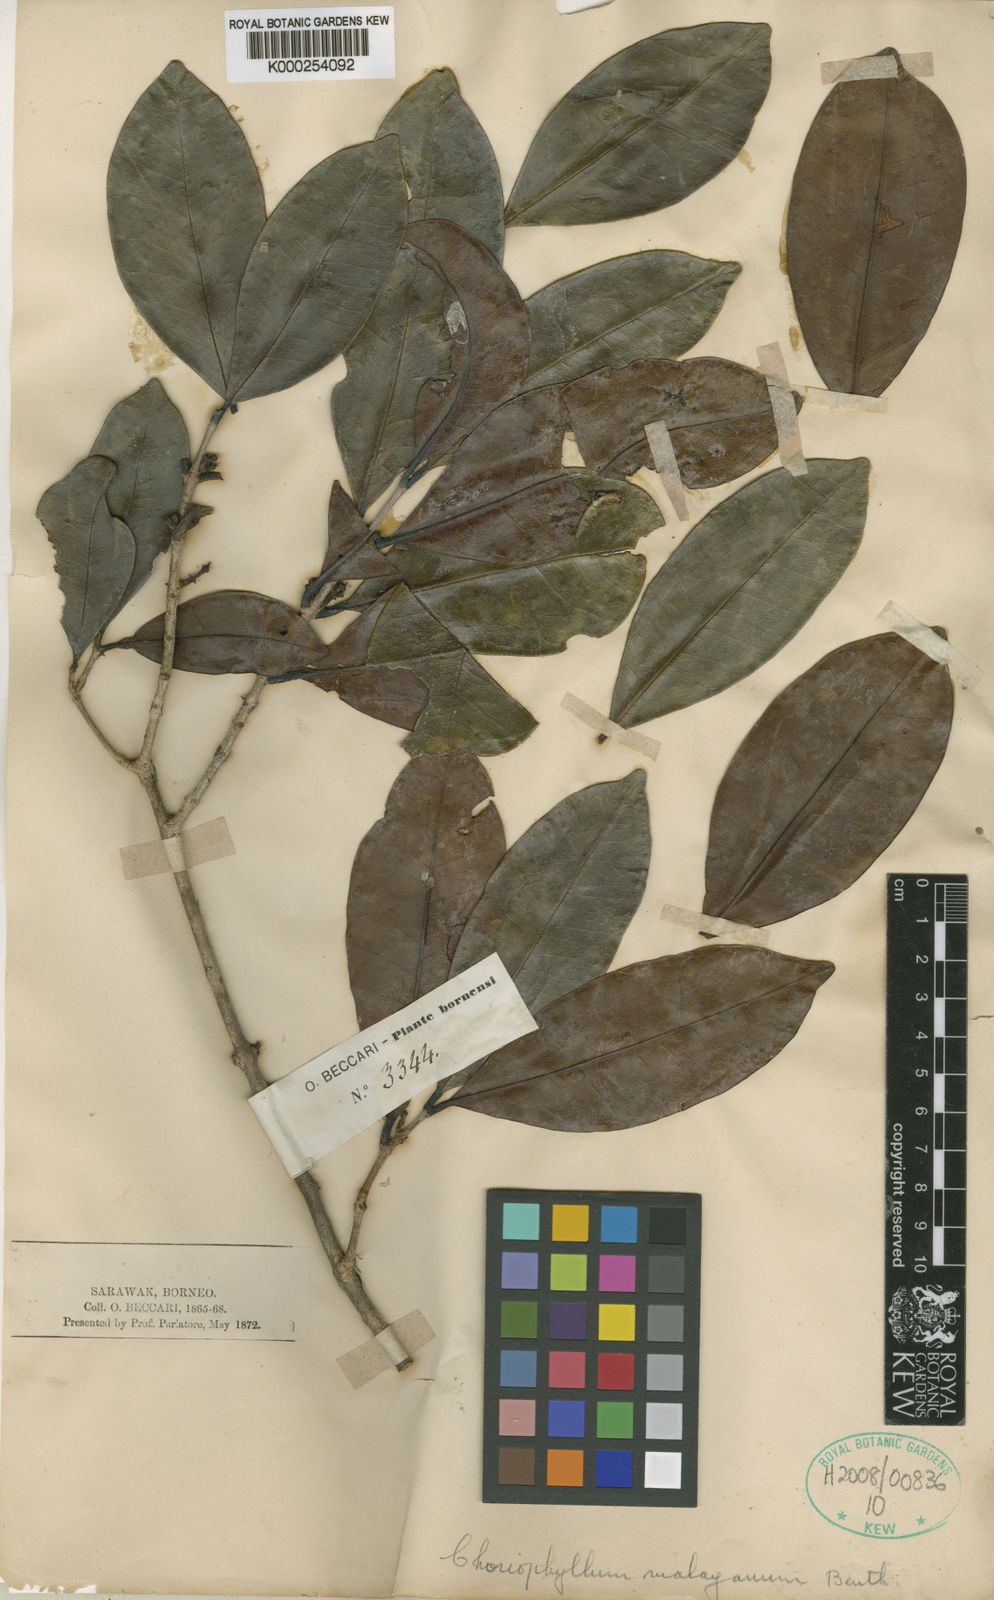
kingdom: Plantae
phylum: Tracheophyta
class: Magnoliopsida
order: Malpighiales
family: Picrodendraceae
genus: Austrobuxus
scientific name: Austrobuxus nitidus
